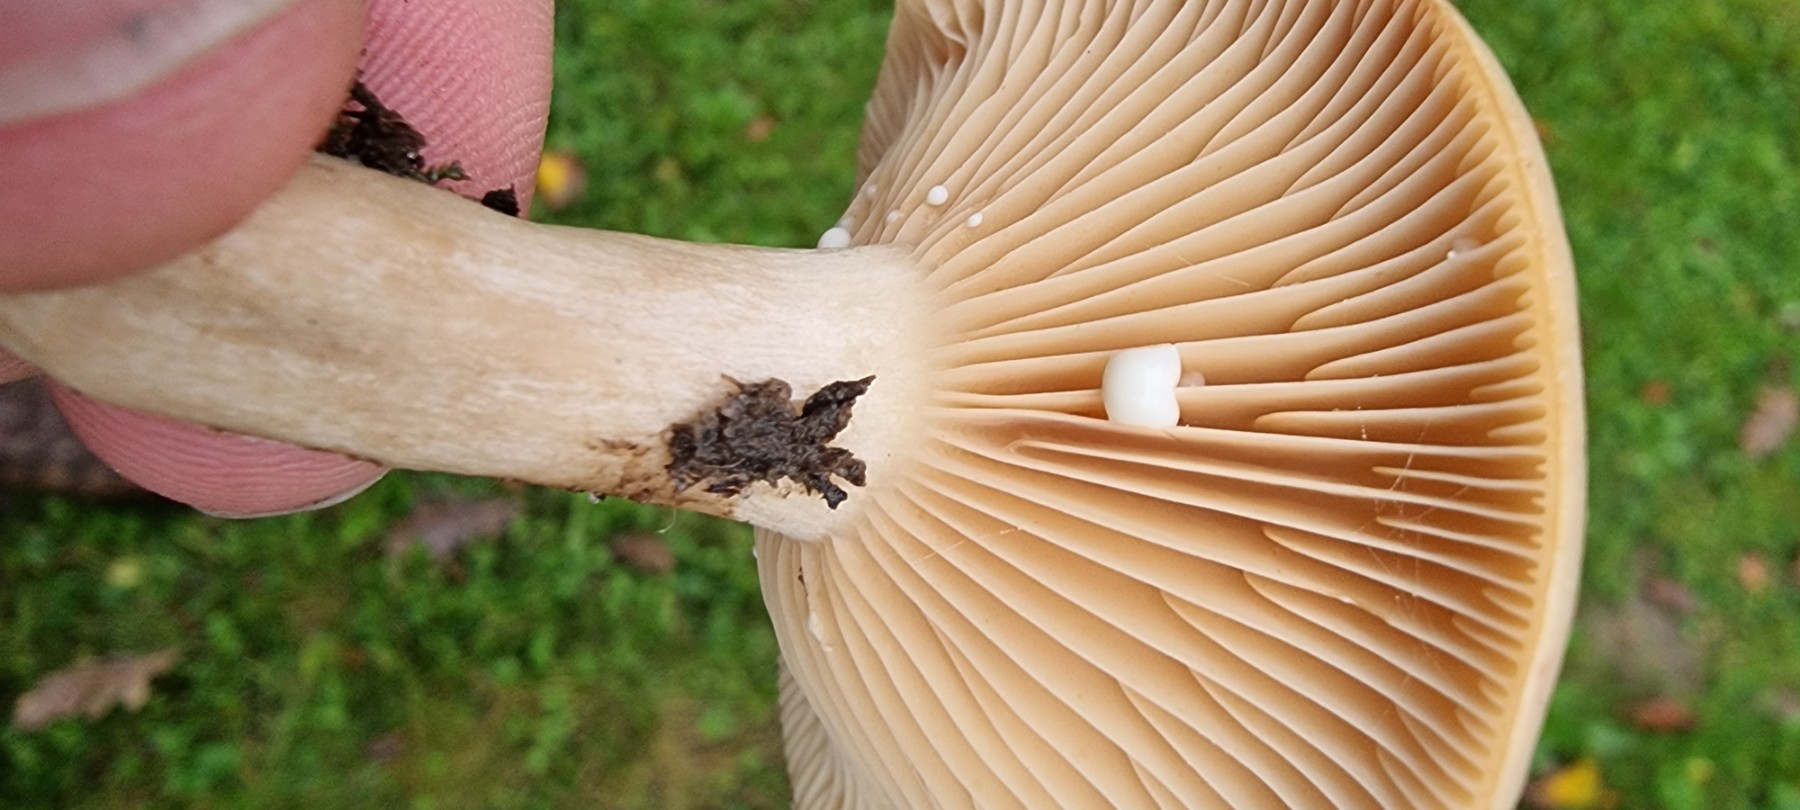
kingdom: Fungi
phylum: Basidiomycota
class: Agaricomycetes
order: Russulales
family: Russulaceae
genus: Lactarius
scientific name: Lactarius pyrogalus
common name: hassel-mælkehat
